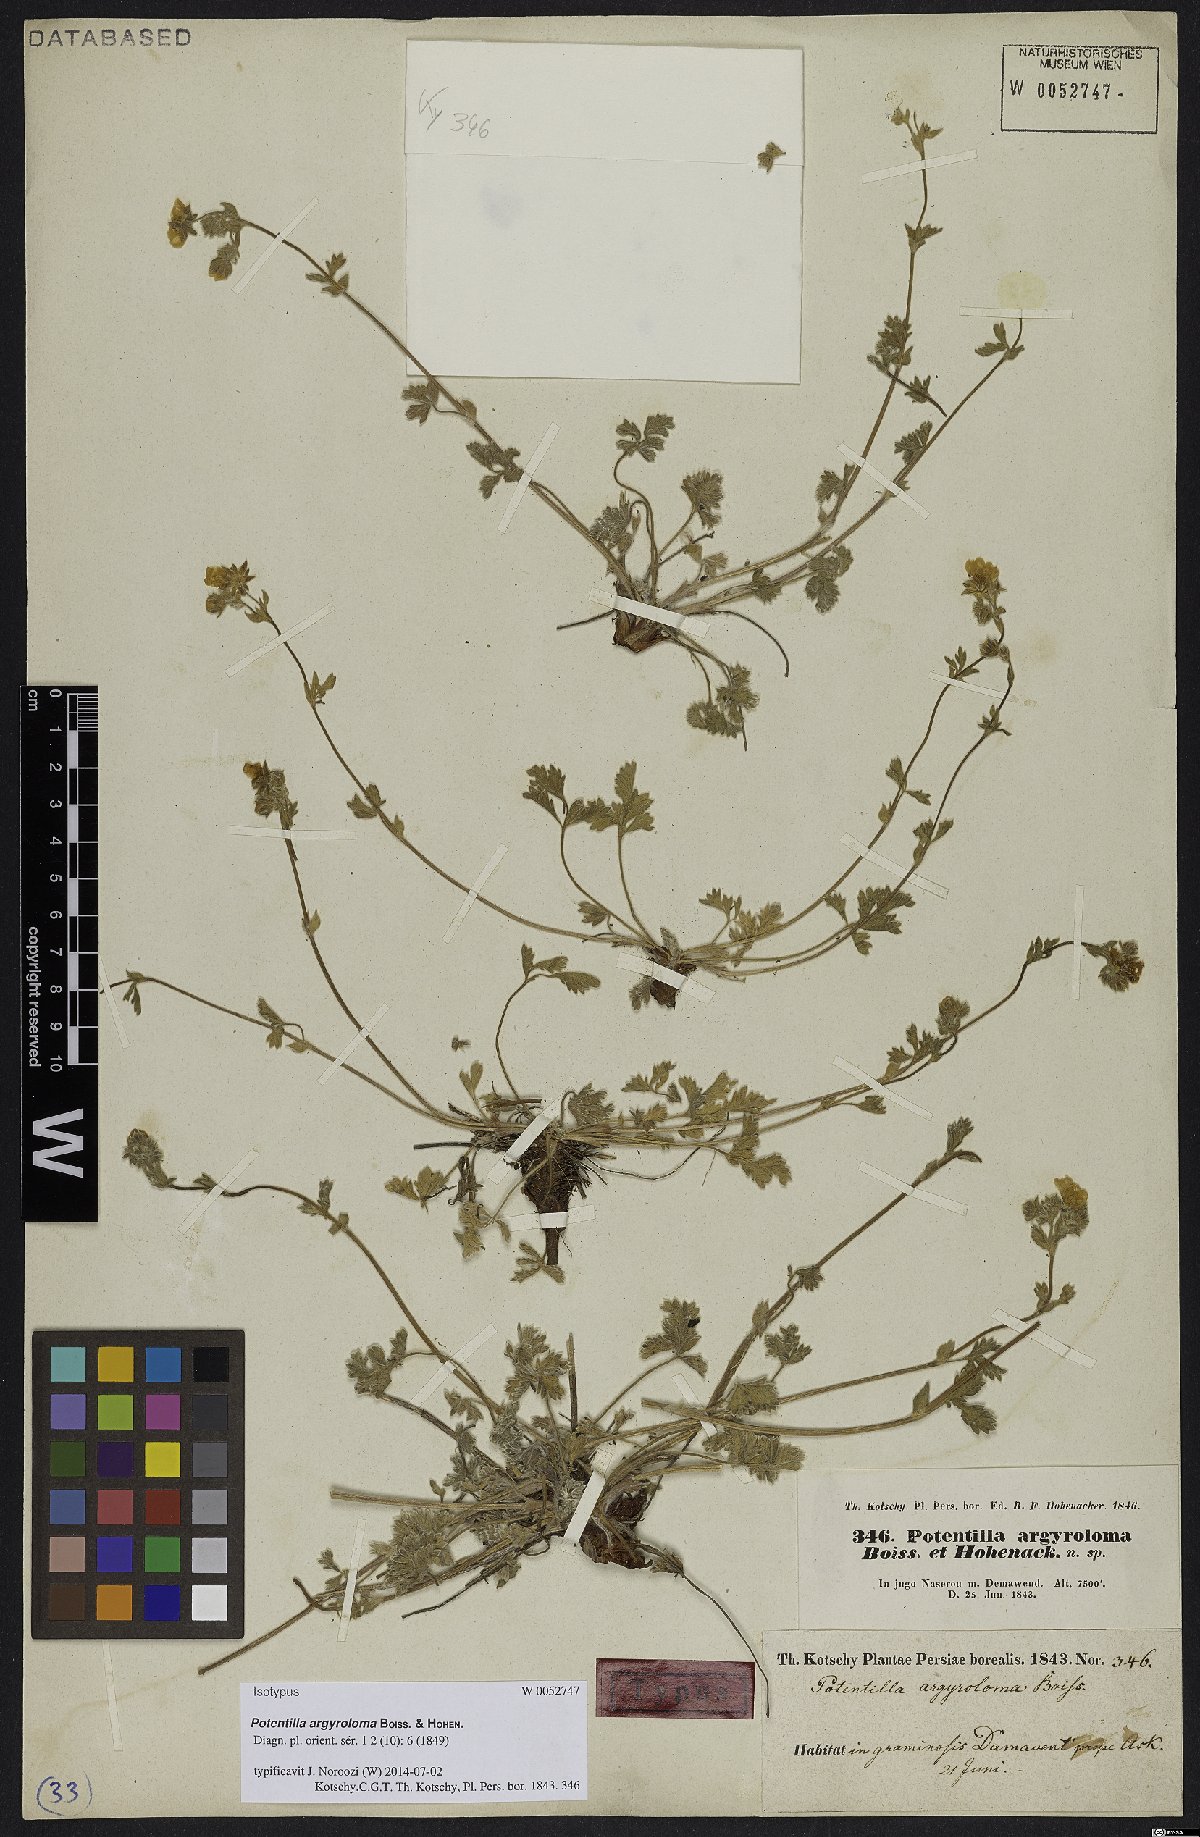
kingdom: Plantae
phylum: Tracheophyta
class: Magnoliopsida
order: Rosales
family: Rosaceae
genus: Potentilla
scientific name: Potentilla argyroloma
